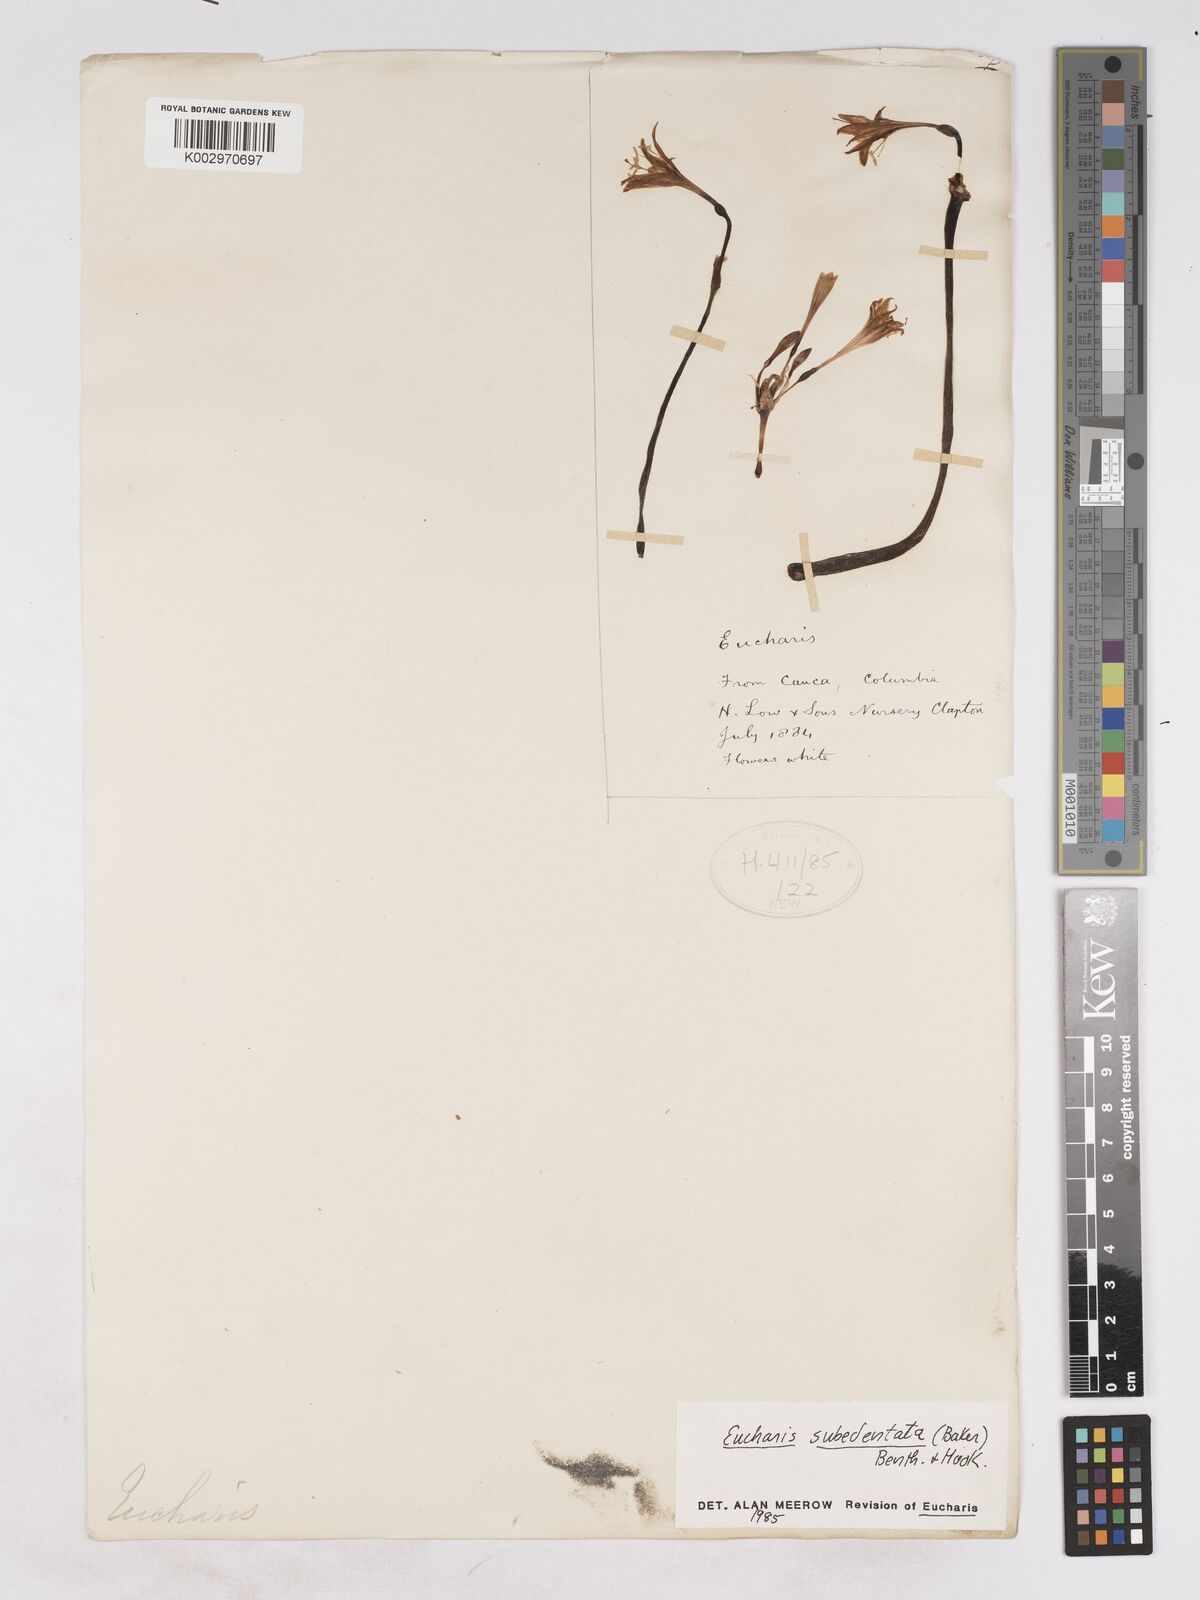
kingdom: Plantae
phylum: Tracheophyta
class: Liliopsida
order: Asparagales
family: Amaryllidaceae
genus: Urceolina
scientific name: Urceolina subedentata
